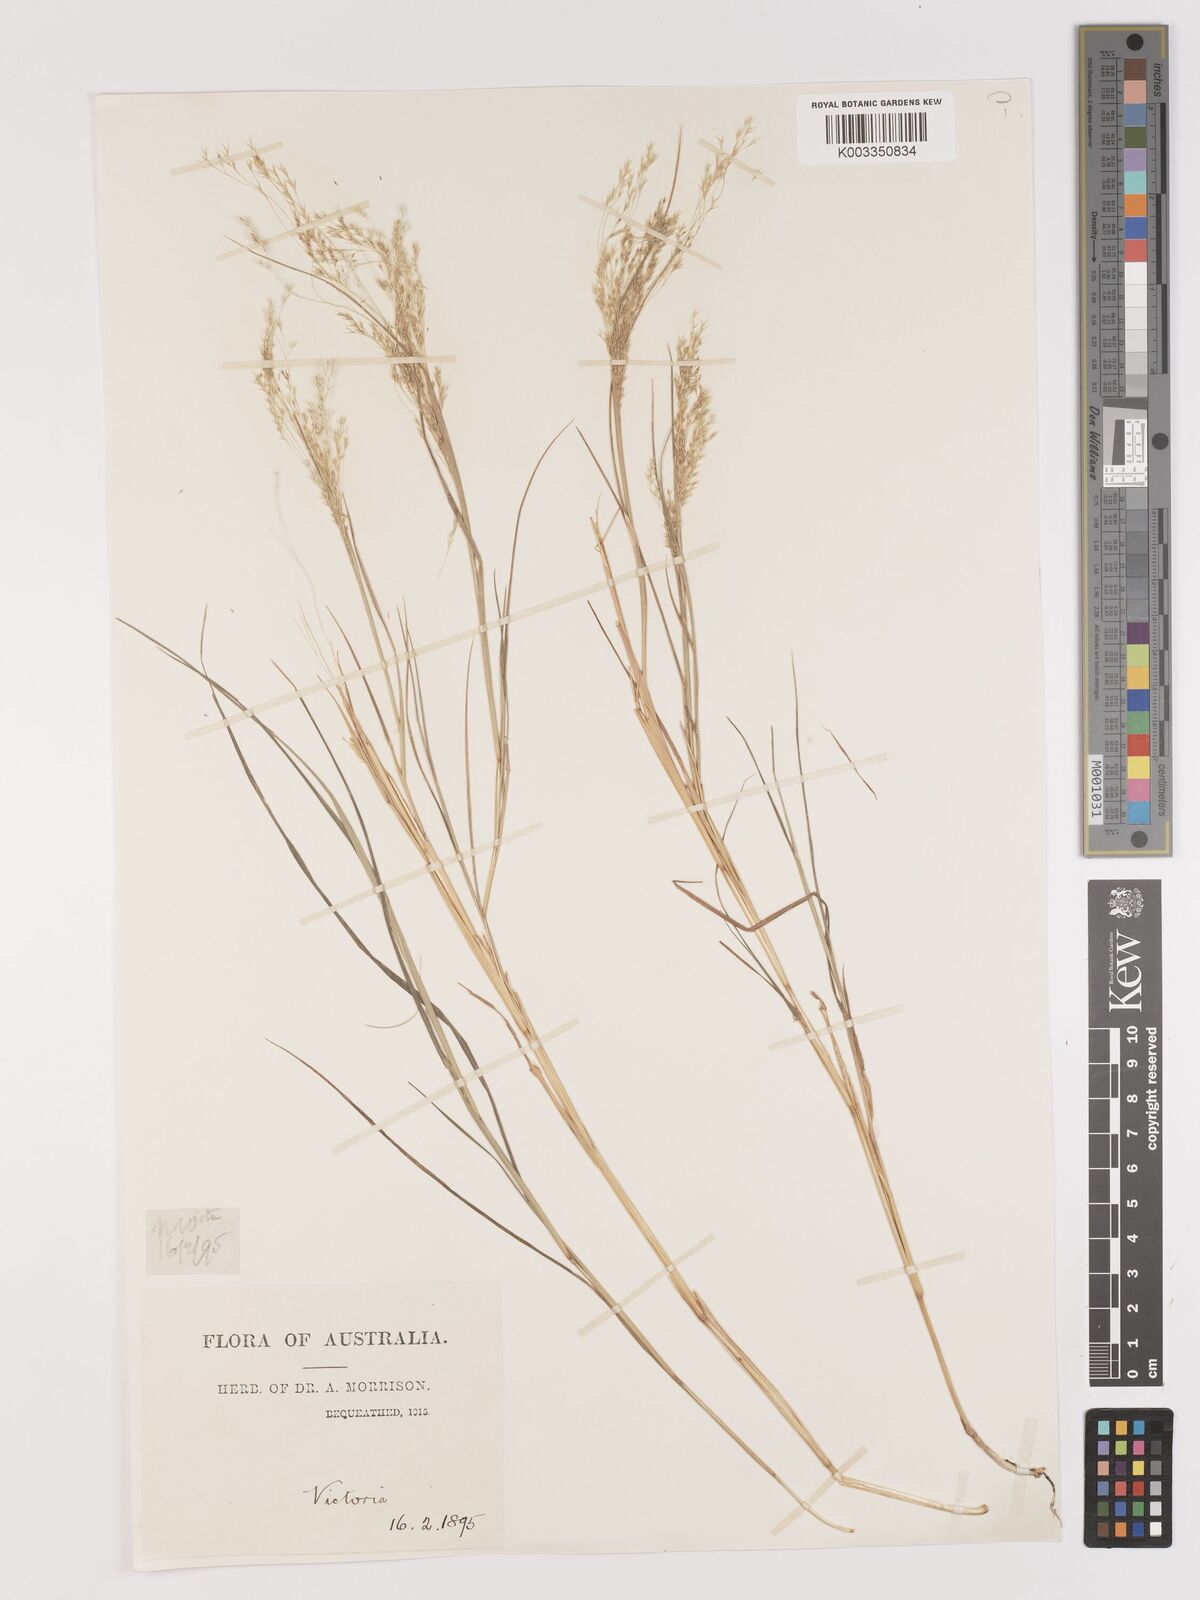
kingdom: Plantae
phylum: Tracheophyta
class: Liliopsida
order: Poales
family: Poaceae
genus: Lachnagrostis
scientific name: Lachnagrostis filiformis
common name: Bentgrass
